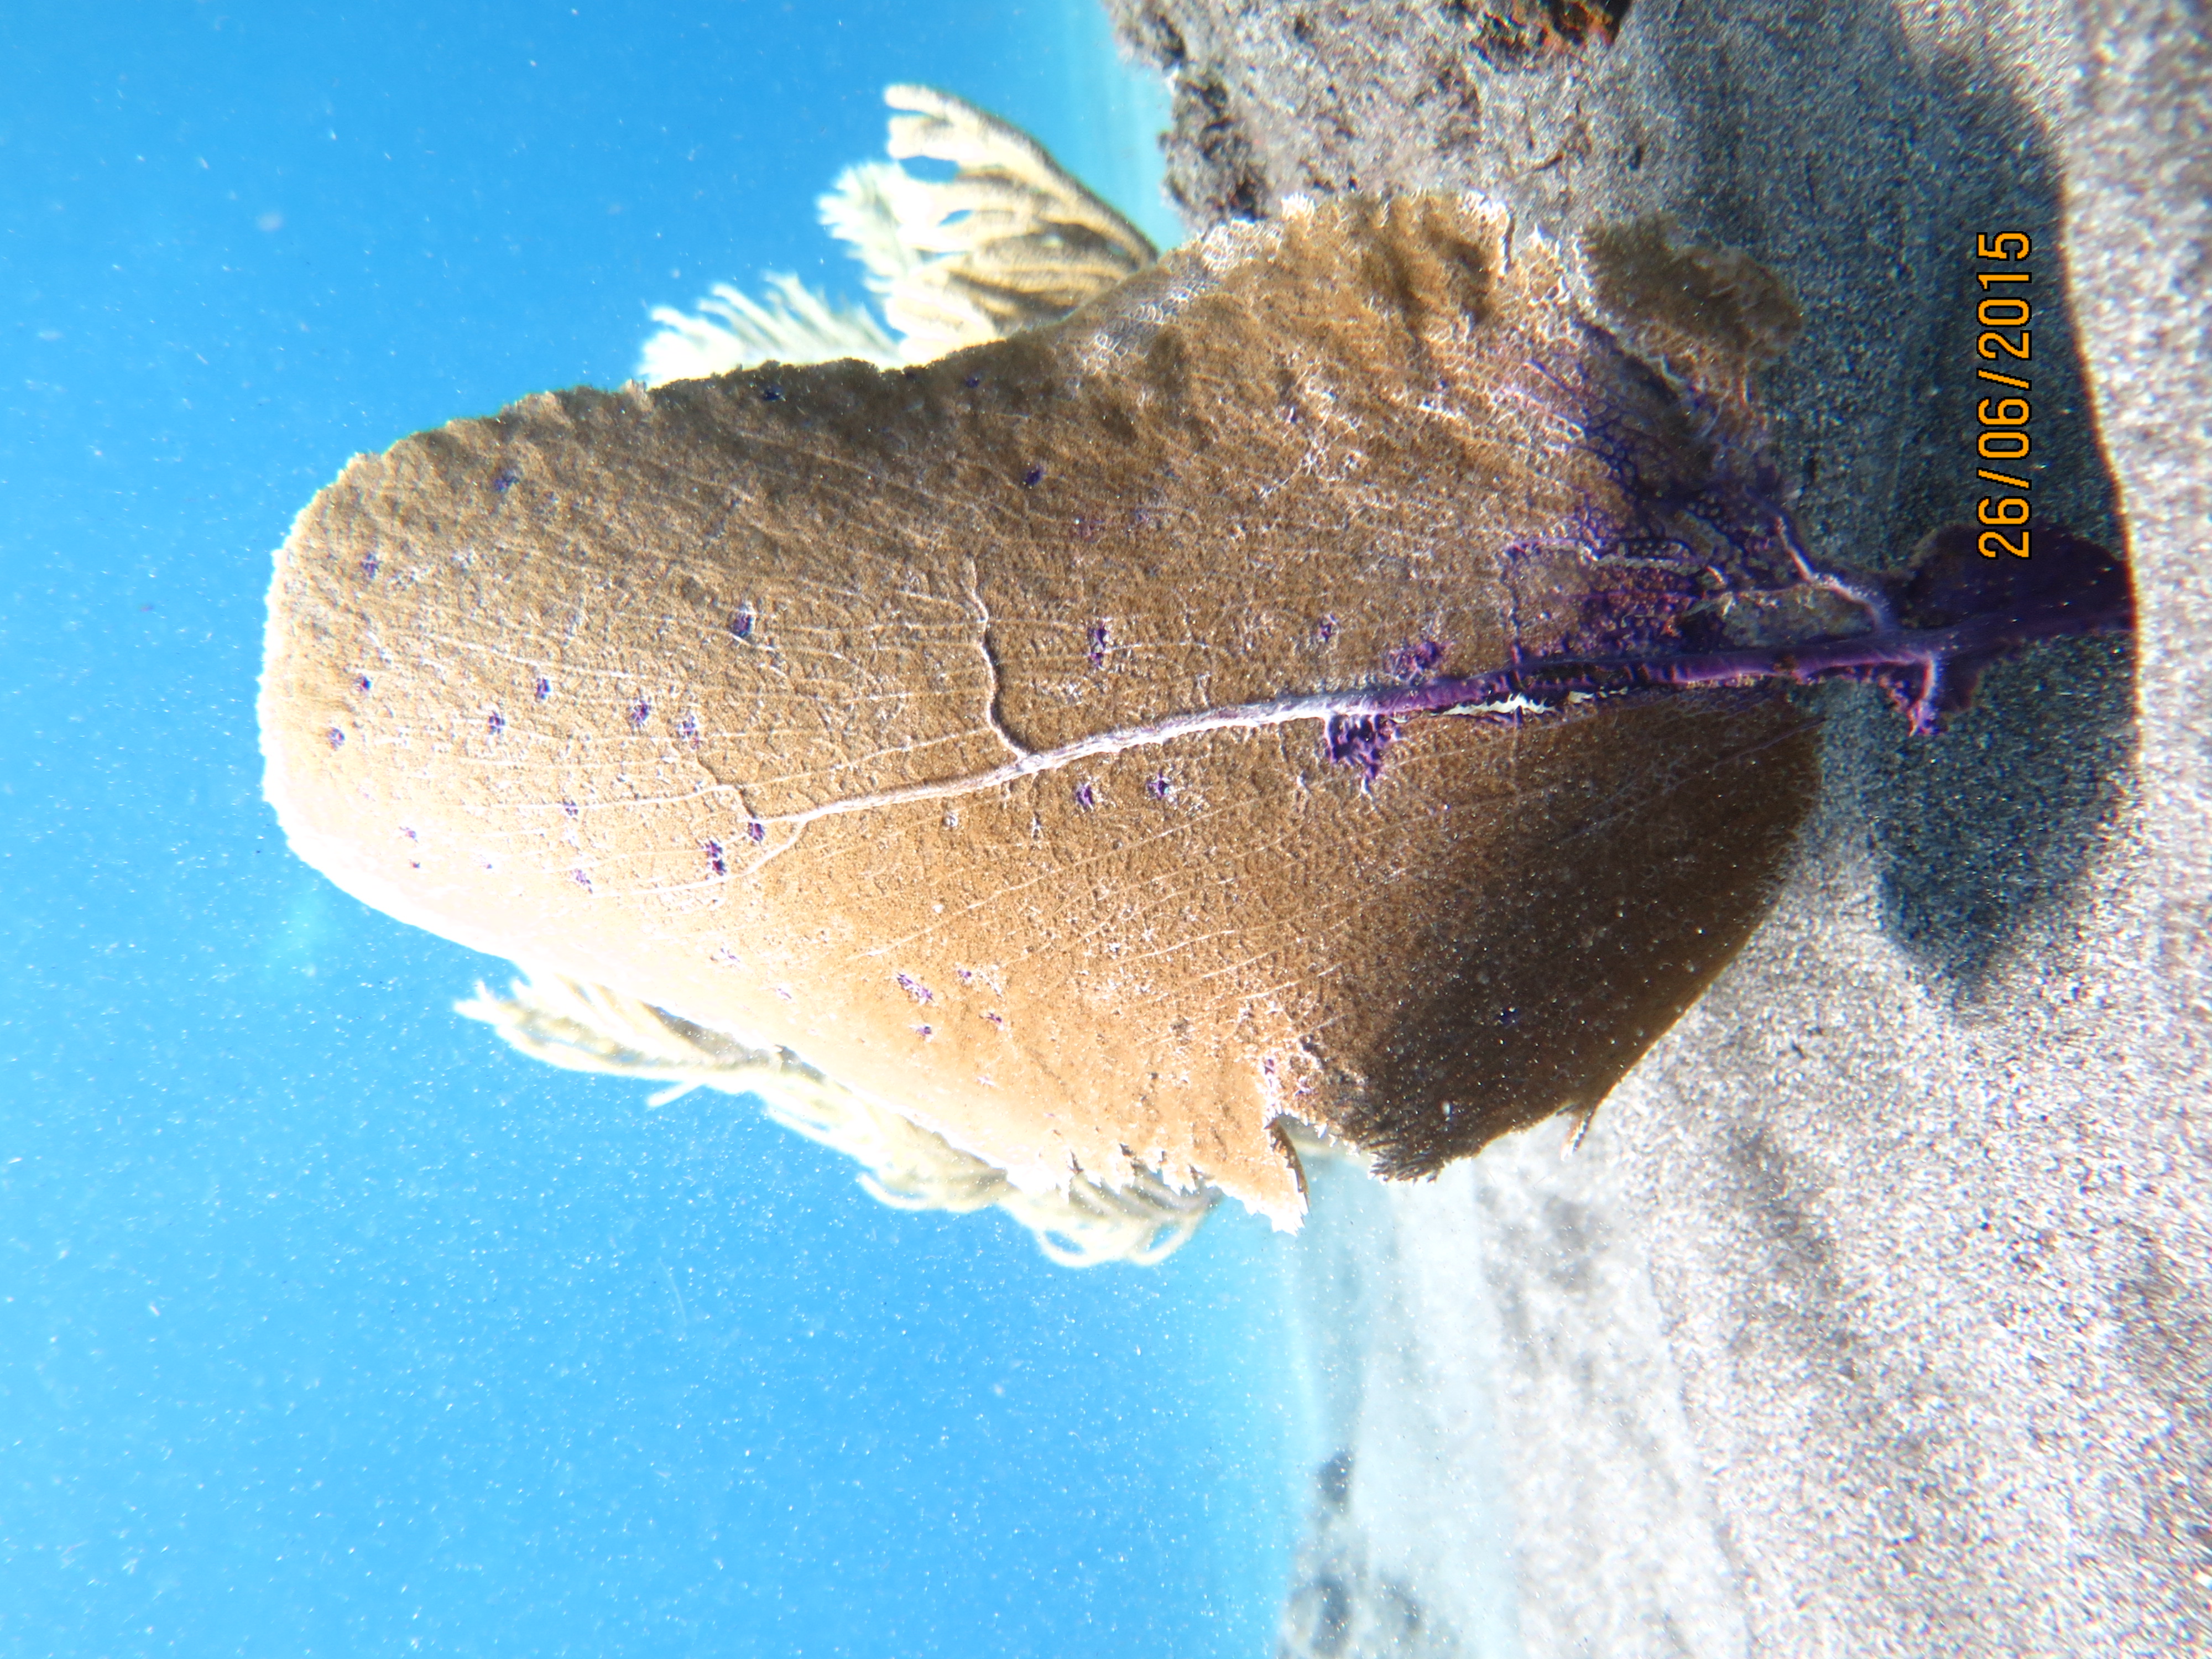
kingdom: Animalia
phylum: Cnidaria
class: Anthozoa
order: Malacalcyonacea
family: Gorgoniidae
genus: Gorgonia
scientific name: Gorgonia ventalina
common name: Common sea fan
